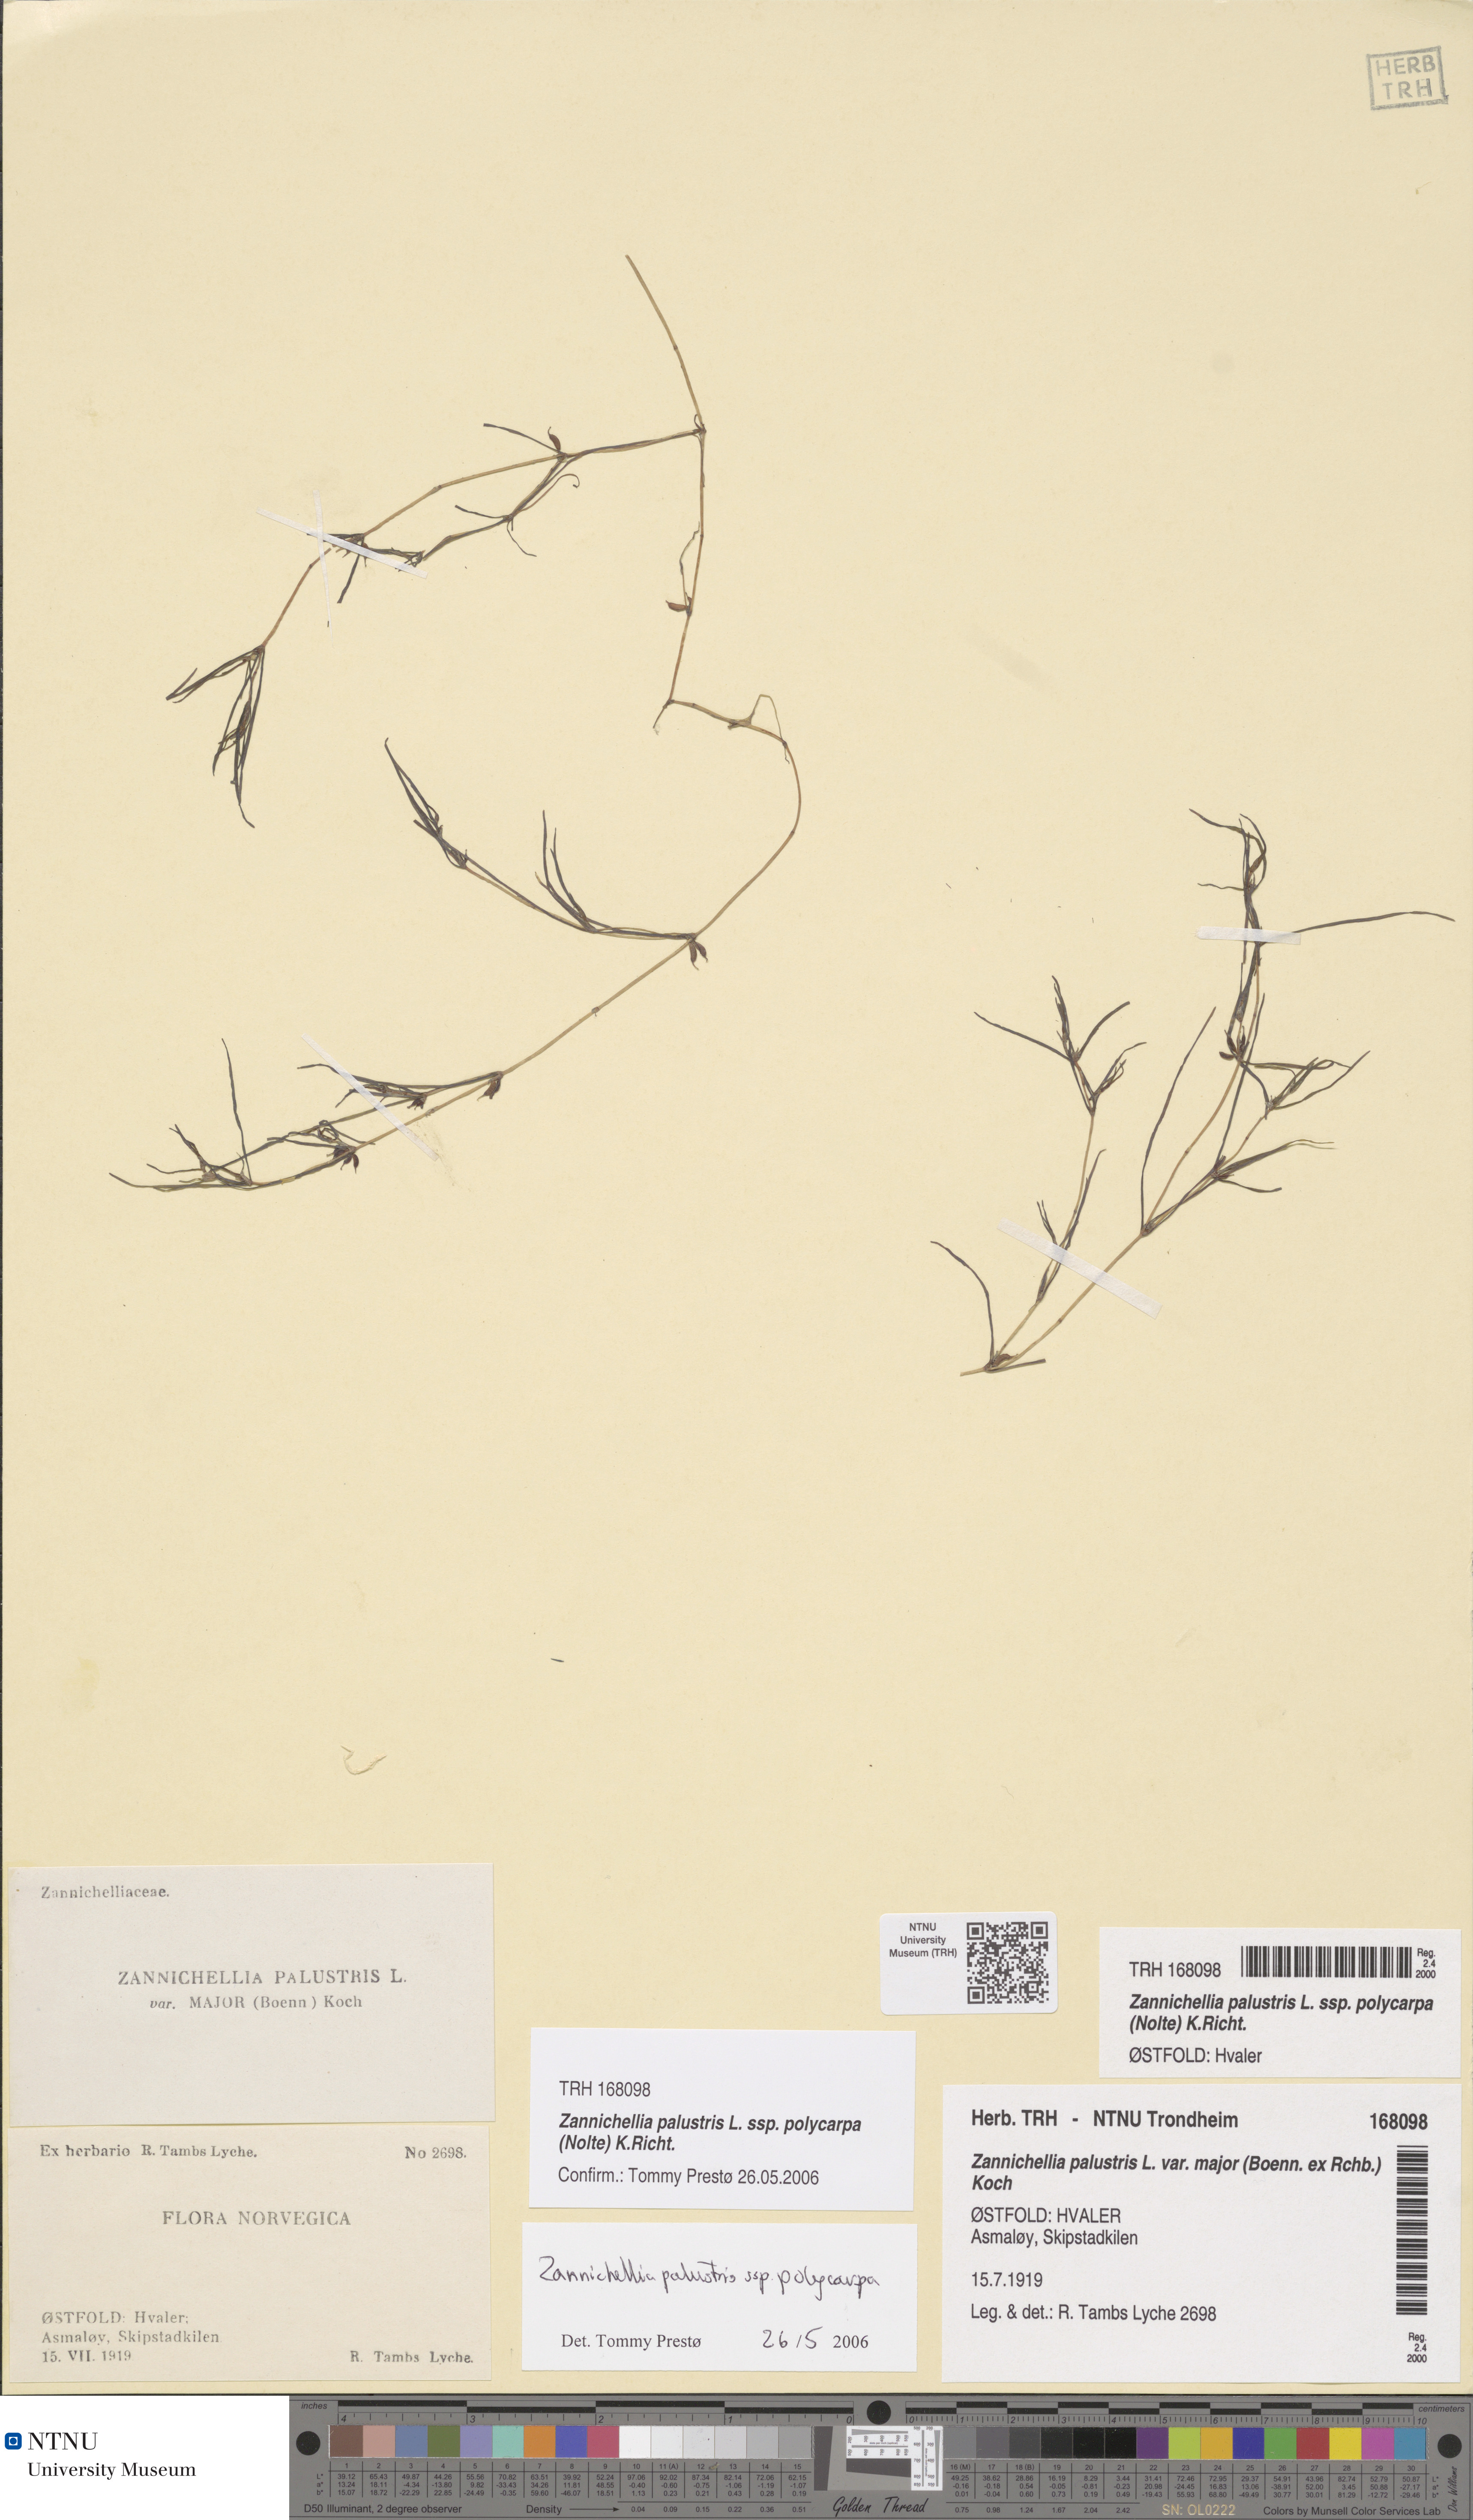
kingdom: Plantae
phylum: Tracheophyta
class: Liliopsida
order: Alismatales
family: Potamogetonaceae
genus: Zannichellia
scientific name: Zannichellia palustris
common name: Horned pondweed
